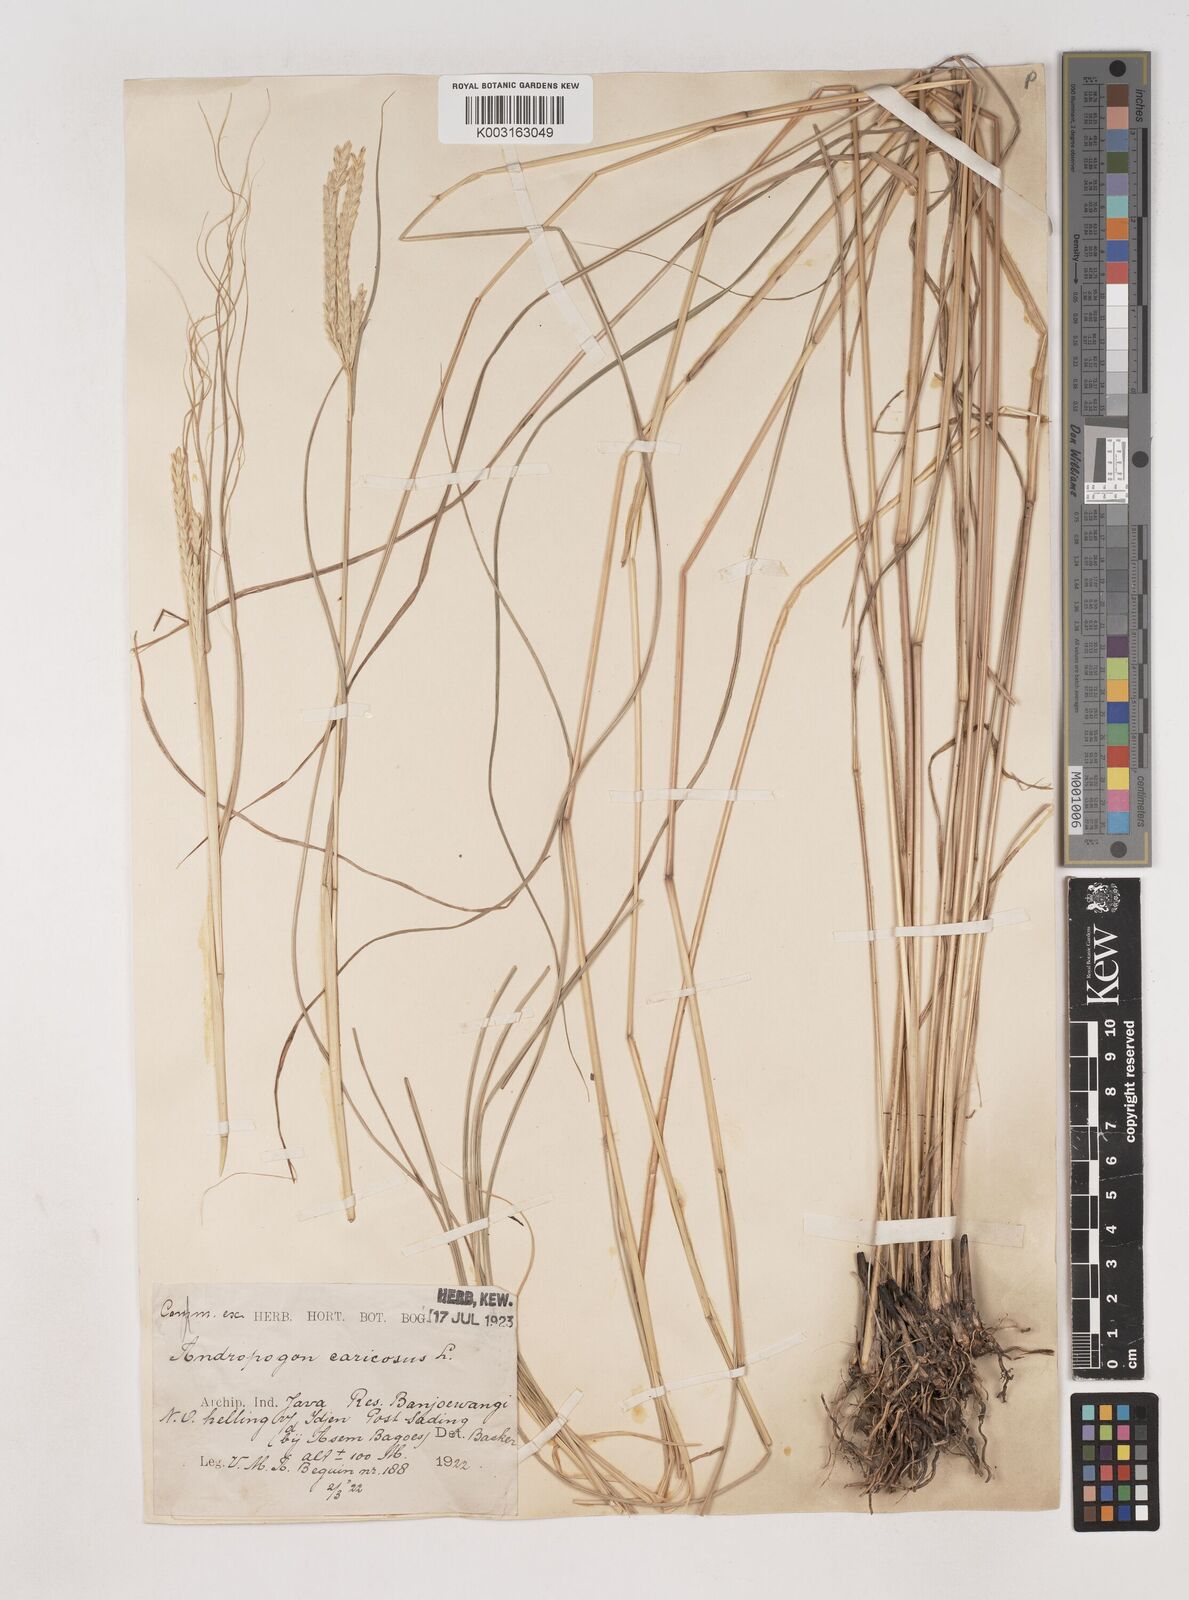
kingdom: Plantae
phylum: Tracheophyta
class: Liliopsida
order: Poales
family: Poaceae
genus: Dichanthium
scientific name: Dichanthium caricosum
